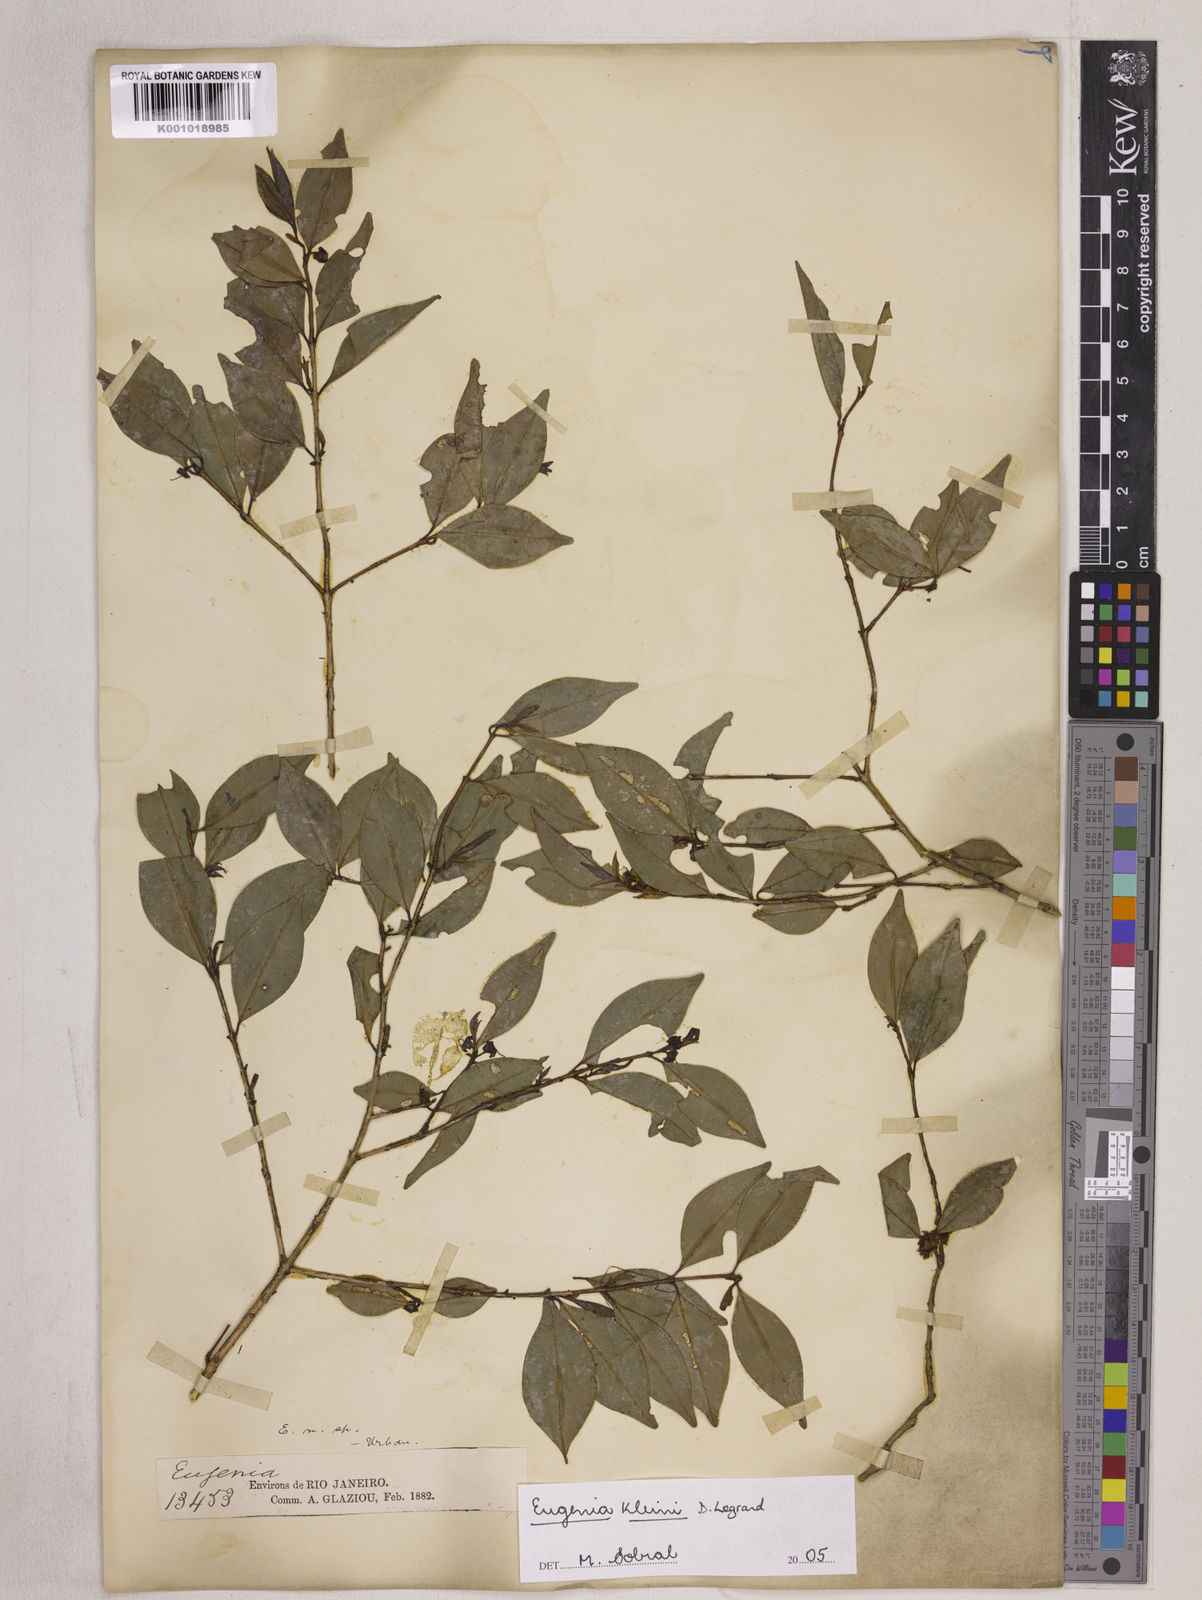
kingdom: Plantae
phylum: Tracheophyta
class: Magnoliopsida
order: Myrtales
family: Myrtaceae
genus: Eugenia
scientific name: Eugenia kleinii
